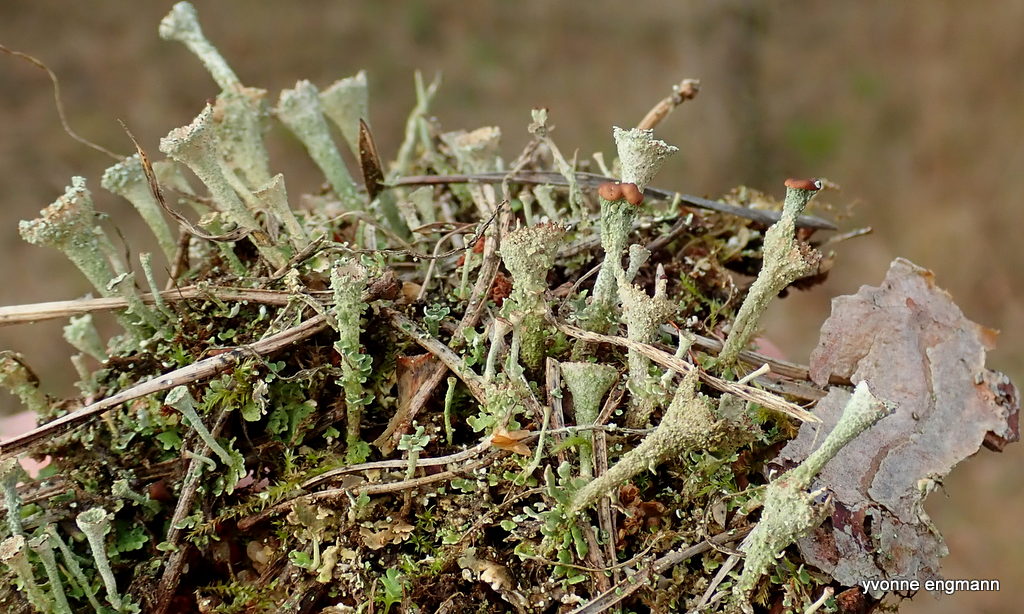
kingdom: Fungi
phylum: Ascomycota
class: Lecanoromycetes
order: Lecanorales
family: Cladoniaceae
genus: Cladonia
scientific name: Cladonia
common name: brungrøn bægerlav
